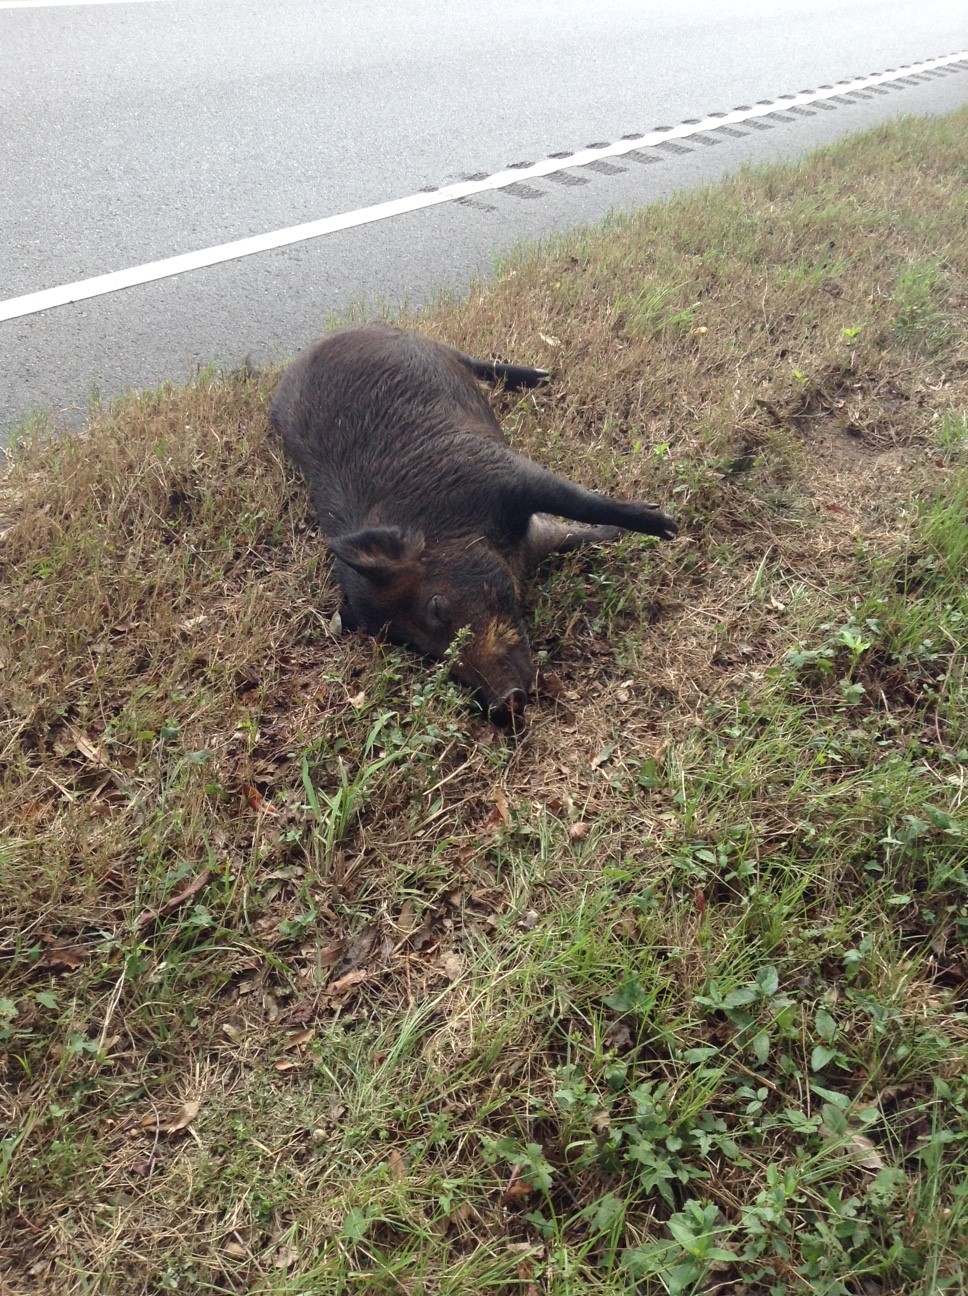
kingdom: Animalia
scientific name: Animalia
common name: NA
